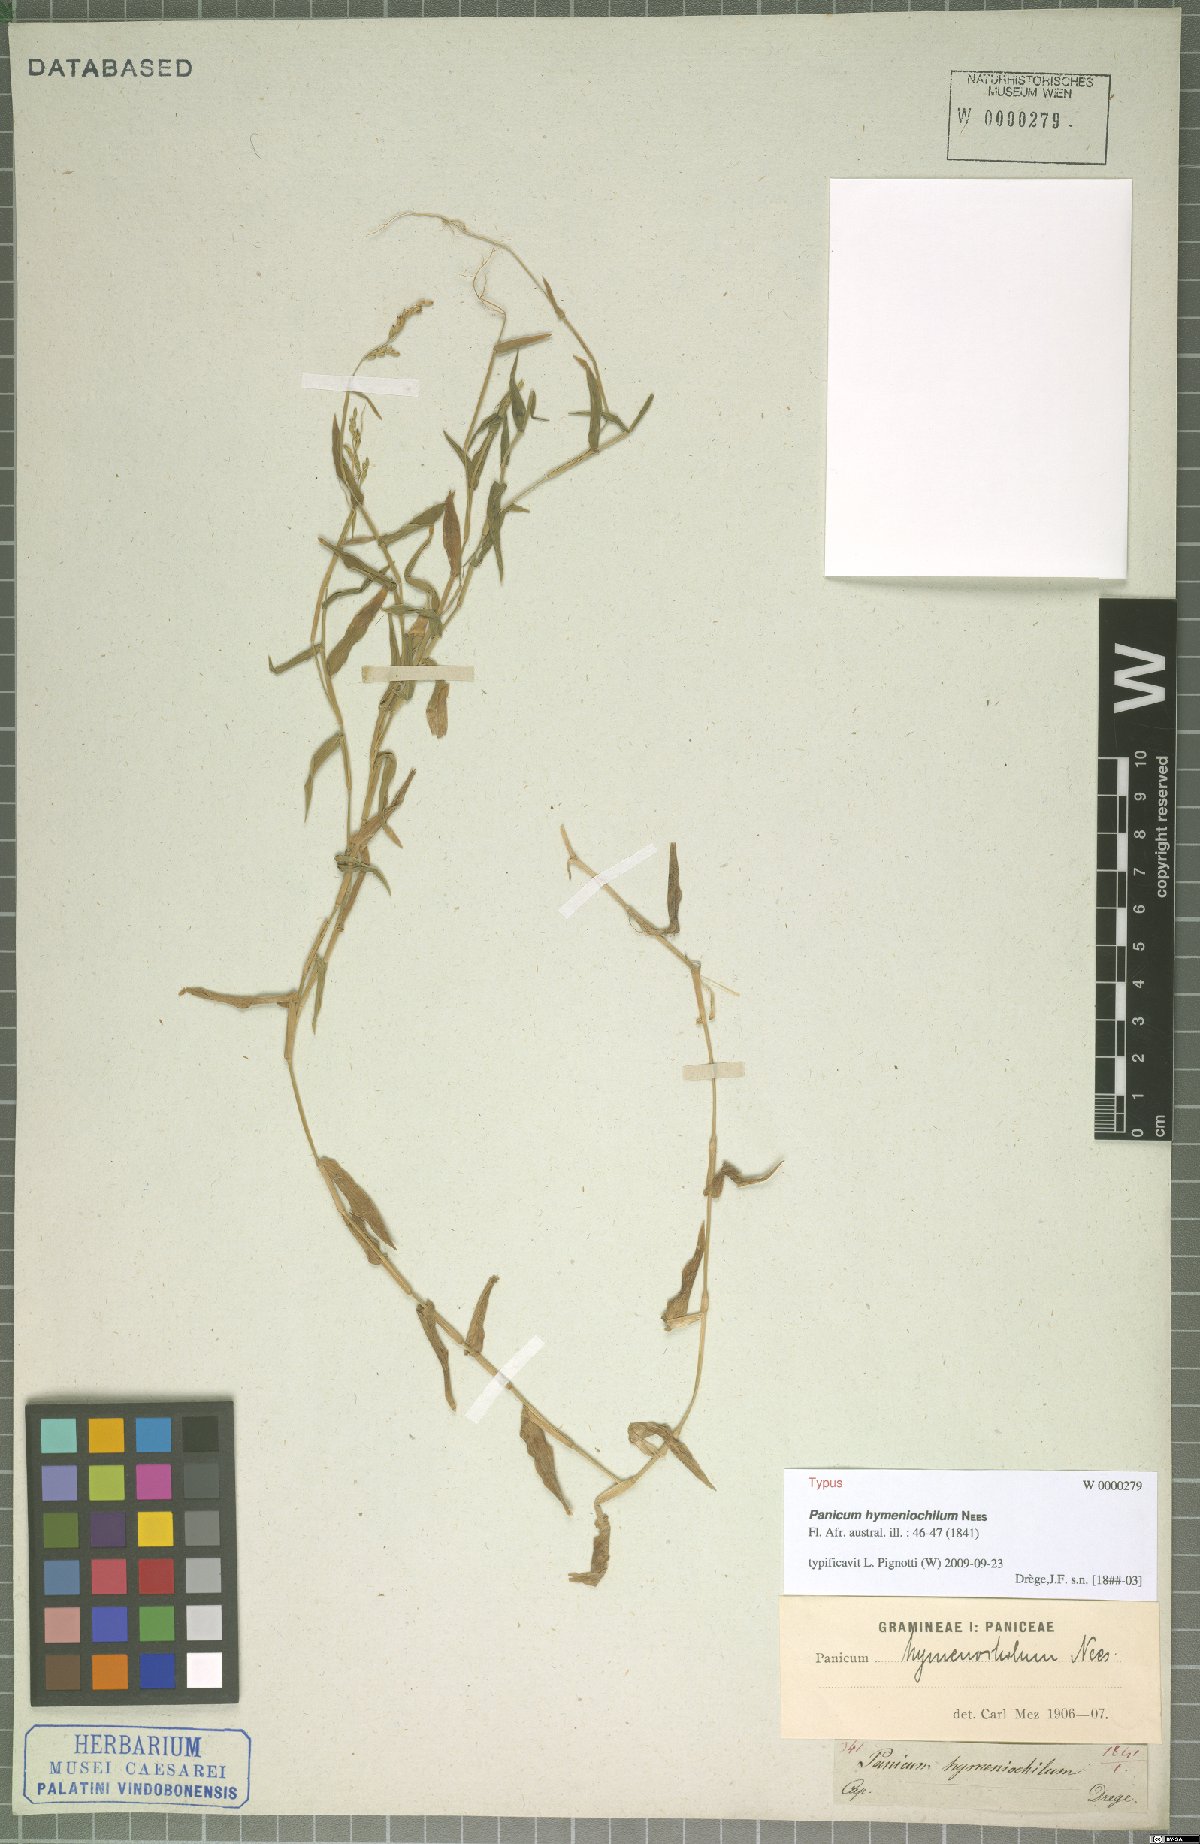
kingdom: Plantae
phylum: Tracheophyta
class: Liliopsida
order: Poales
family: Poaceae
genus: Adenochloa
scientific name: Adenochloa hymeniochila
